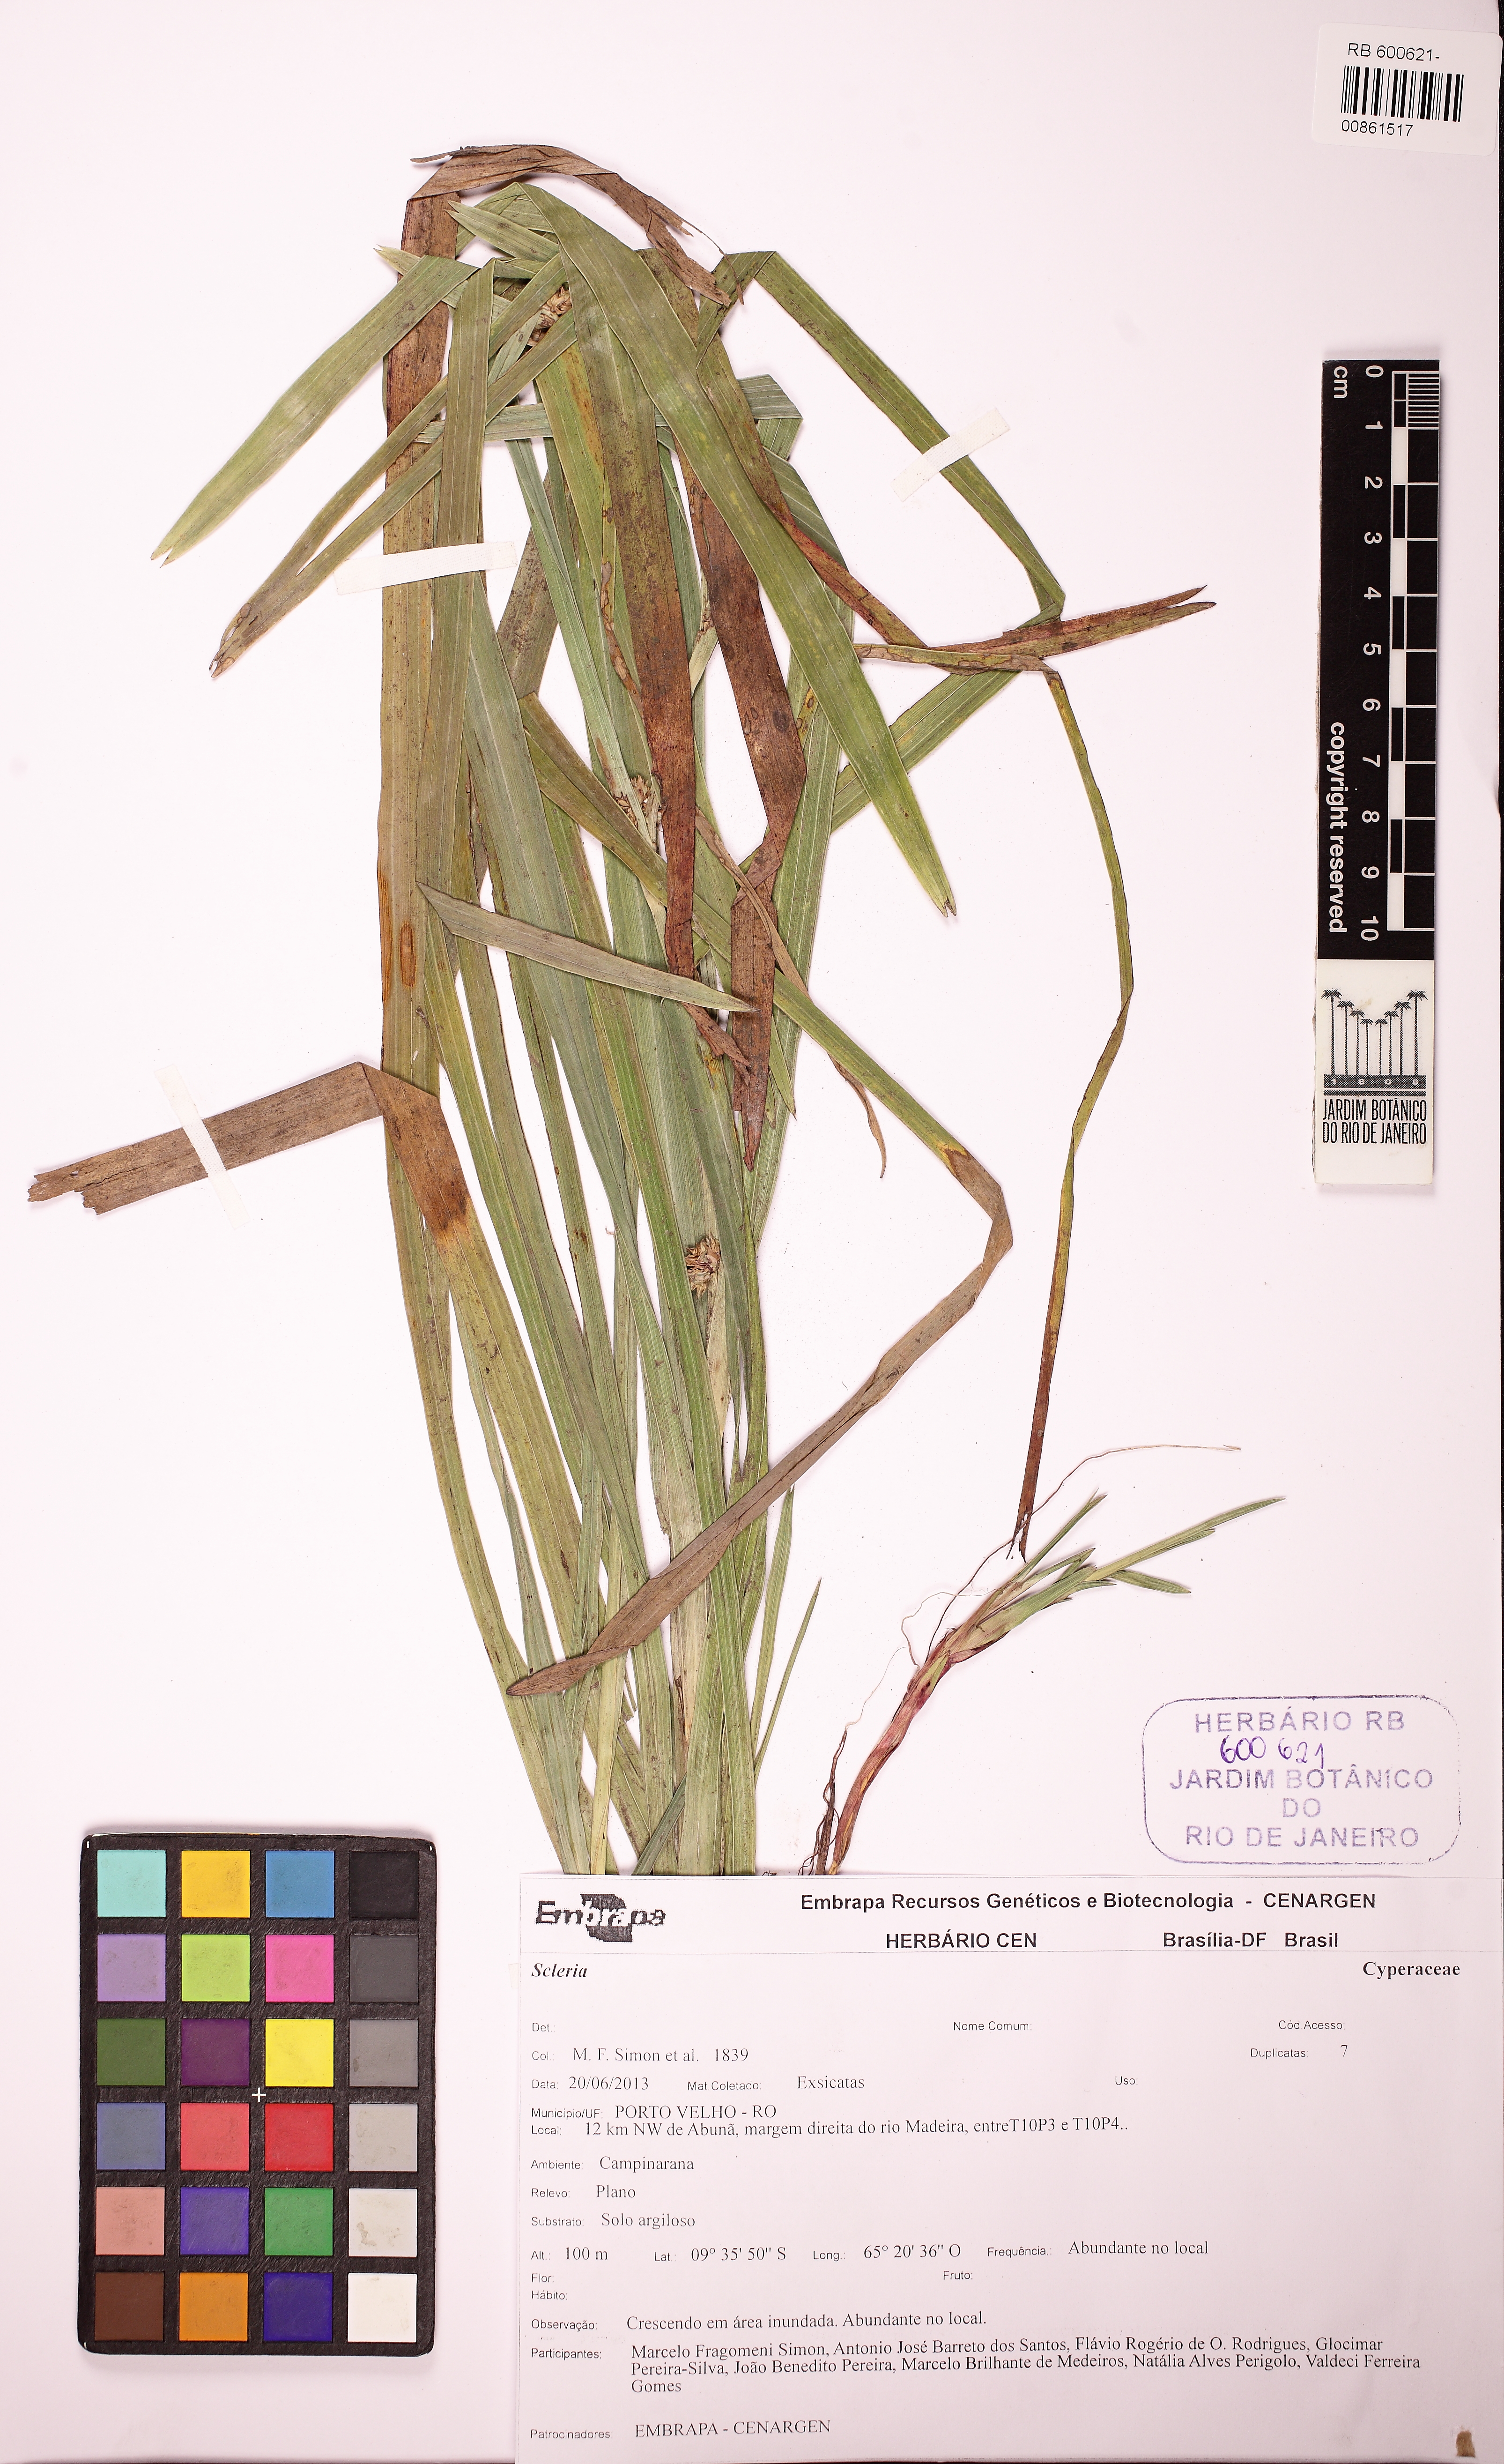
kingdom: Plantae
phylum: Tracheophyta
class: Liliopsida
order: Poales
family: Cyperaceae
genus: Diplacrum
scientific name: Diplacrum guianense
